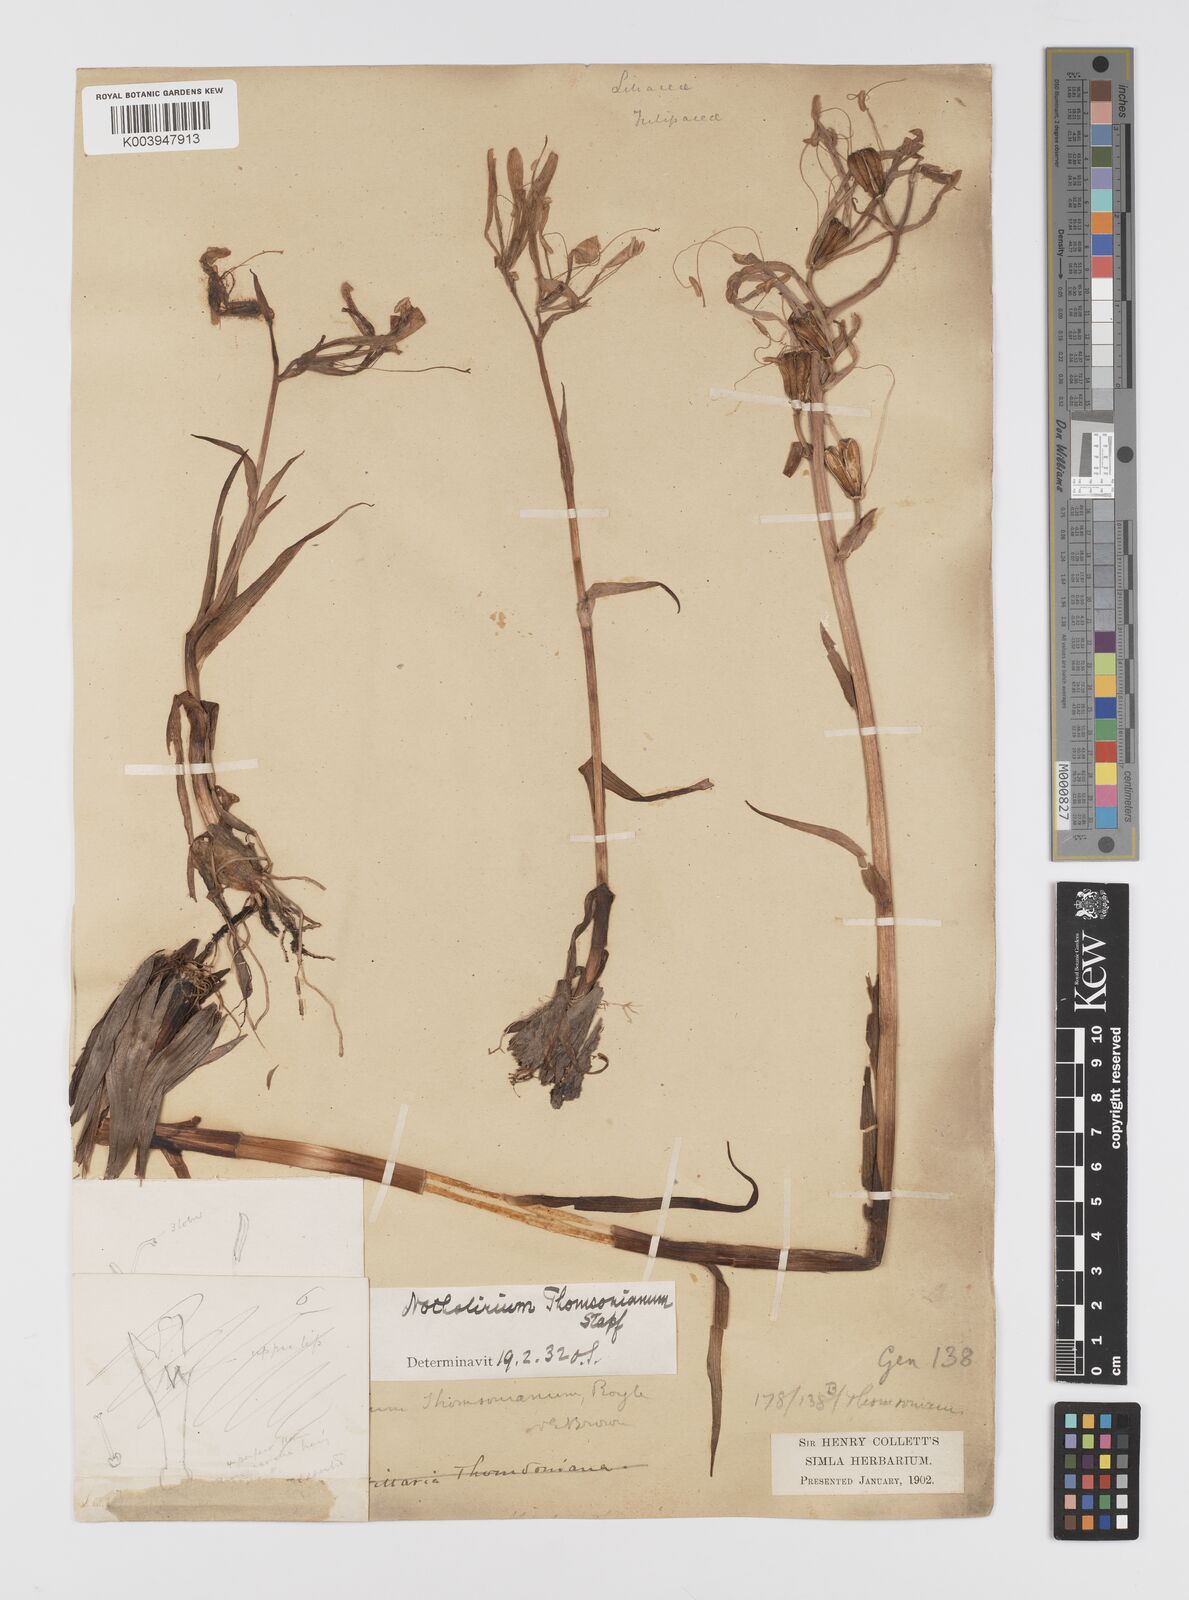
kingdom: Plantae
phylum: Tracheophyta
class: Liliopsida
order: Liliales
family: Liliaceae
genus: Notholirion
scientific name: Notholirion thomsonianum
